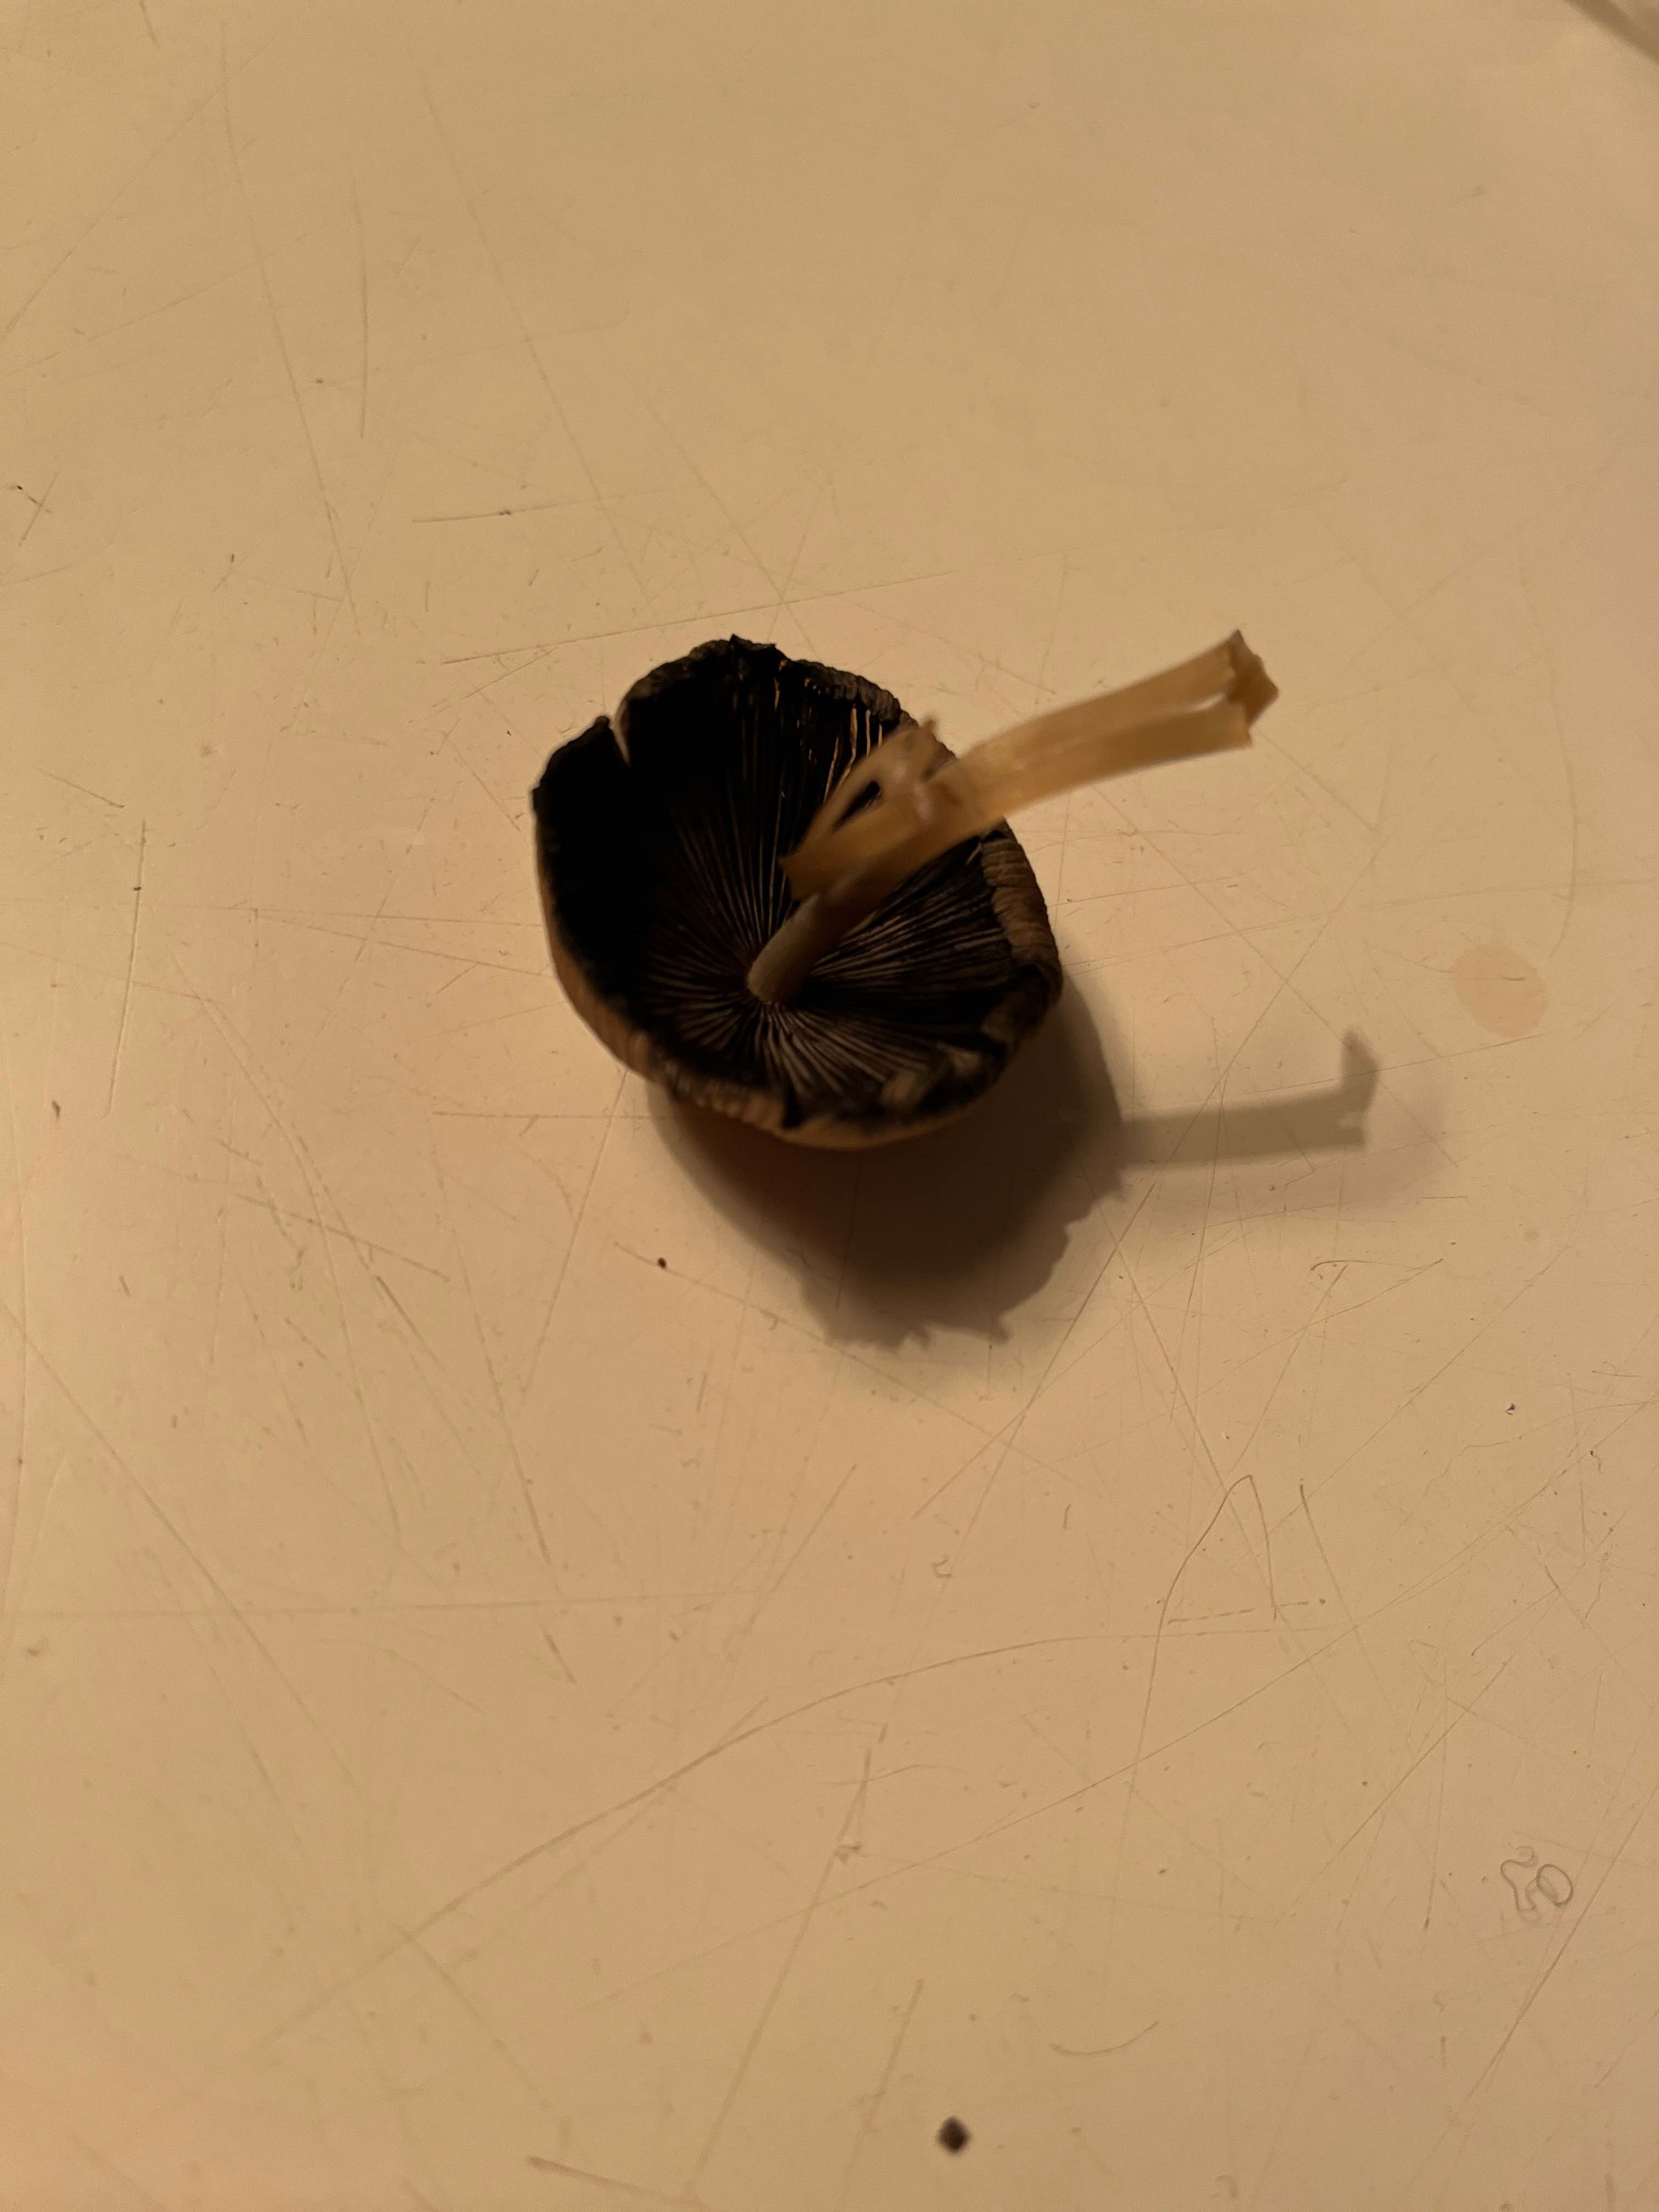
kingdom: Fungi
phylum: Basidiomycota
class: Agaricomycetes
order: Agaricales
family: Psathyrellaceae
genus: Coprinellus
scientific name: Coprinellus micaceus
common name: glimmer-blækhat
